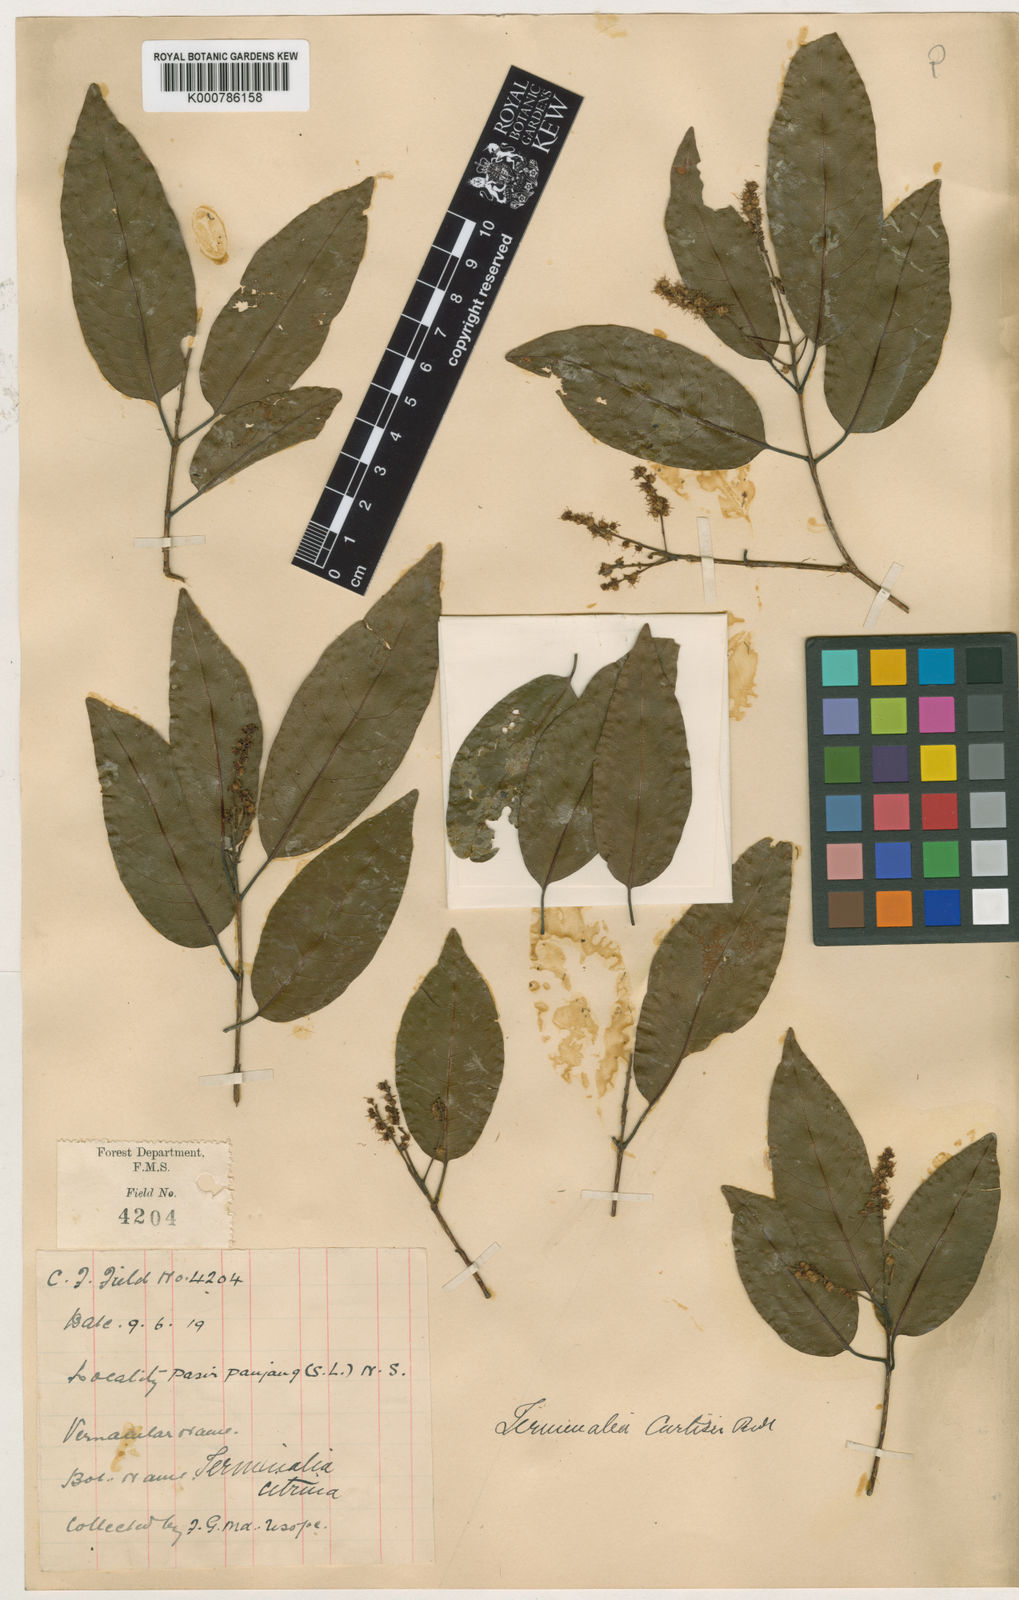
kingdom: Plantae
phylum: Tracheophyta
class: Magnoliopsida
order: Myrtales
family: Combretaceae
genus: Terminalia
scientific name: Terminalia
